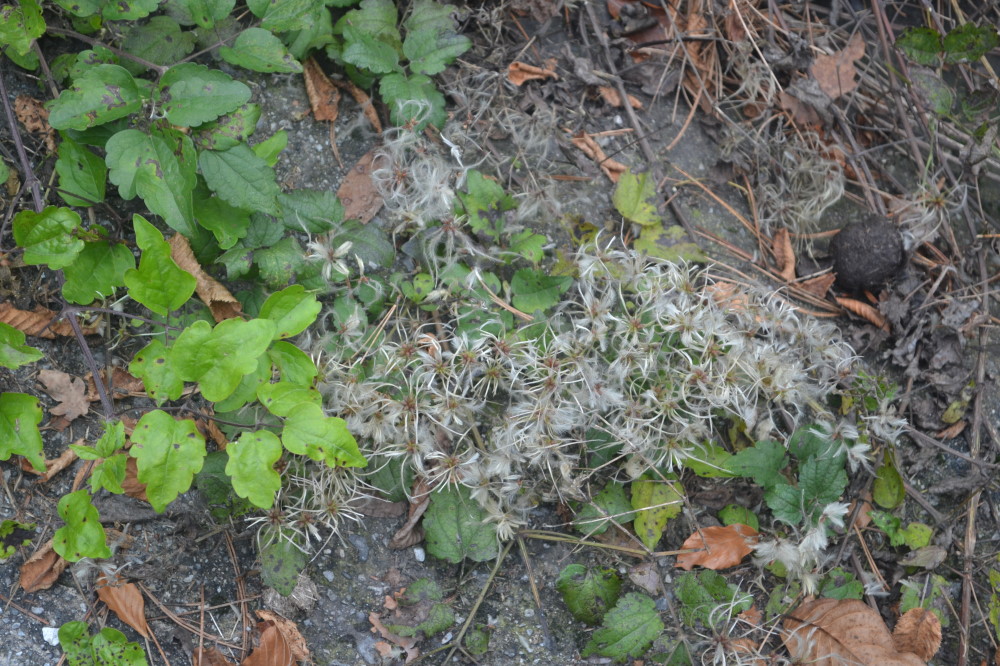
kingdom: Plantae
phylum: Tracheophyta
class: Magnoliopsida
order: Ranunculales
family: Ranunculaceae
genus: Clematis
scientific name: Clematis integrifolia
